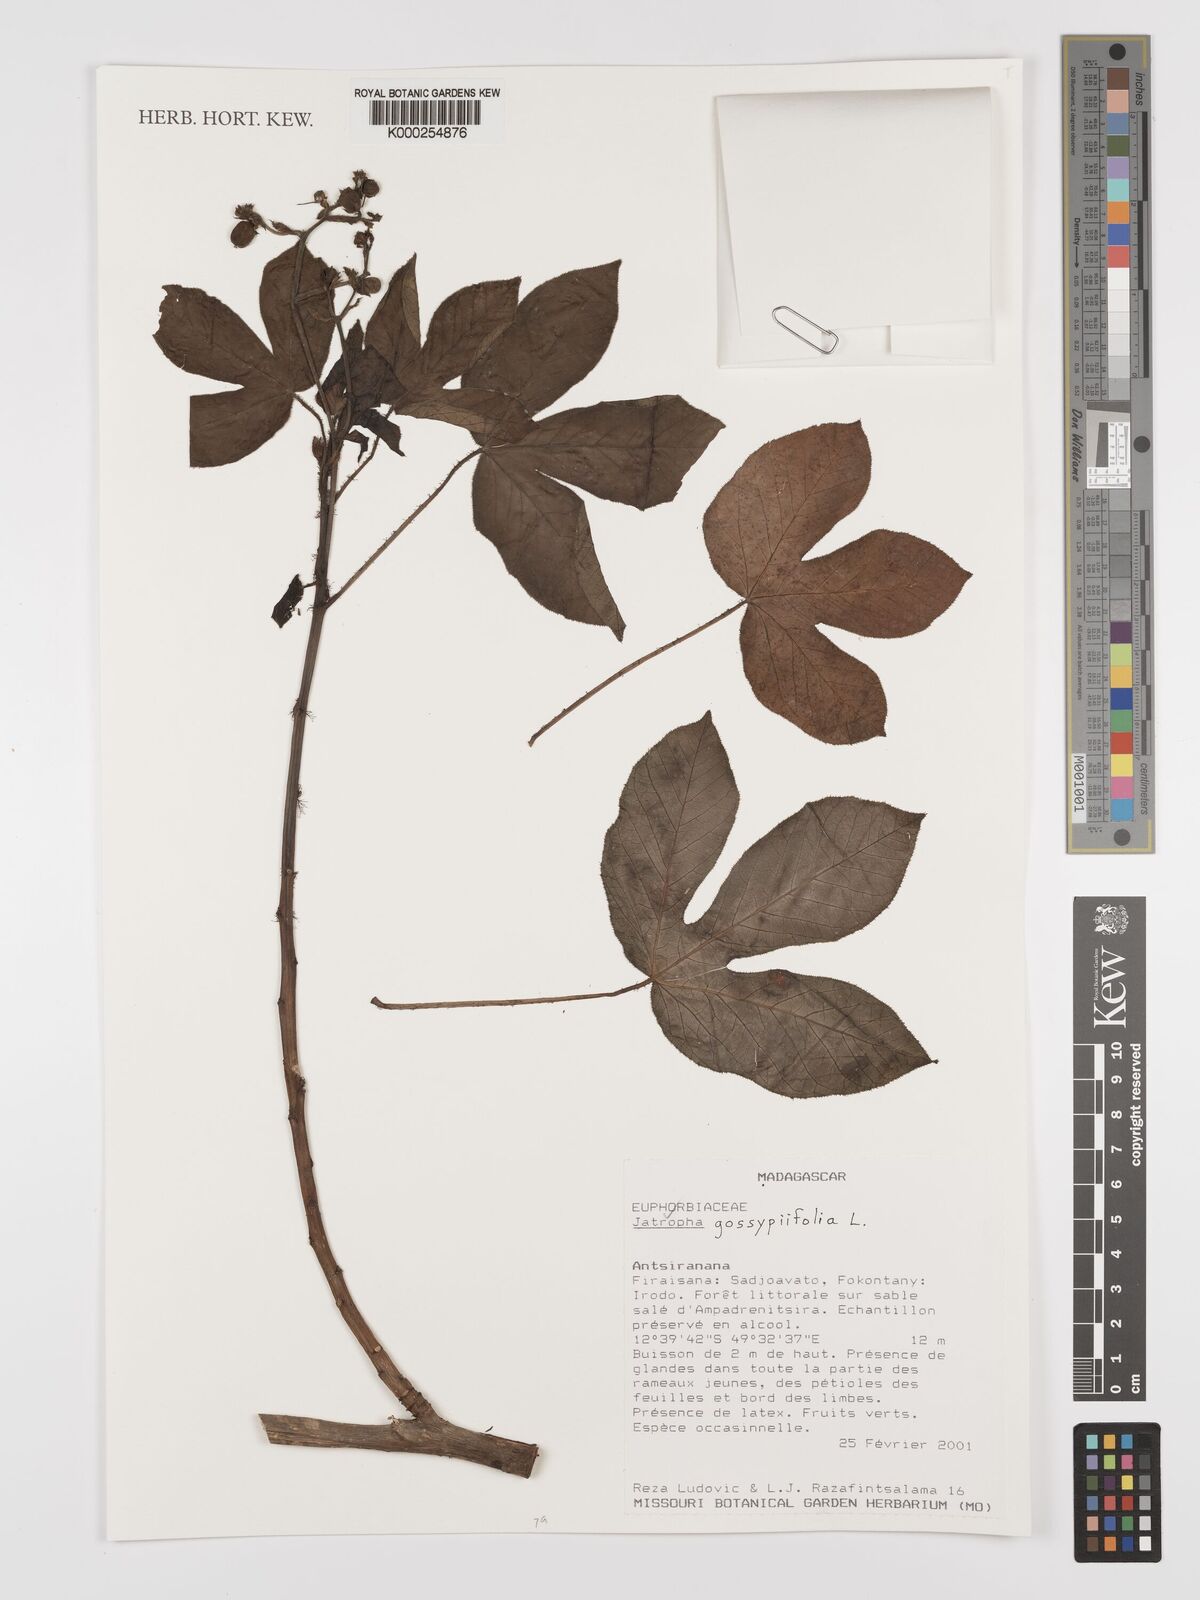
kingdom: Plantae
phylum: Tracheophyta
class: Magnoliopsida
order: Malpighiales
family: Euphorbiaceae
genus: Jatropha
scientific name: Jatropha gossypiifolia
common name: Bellyache bush
